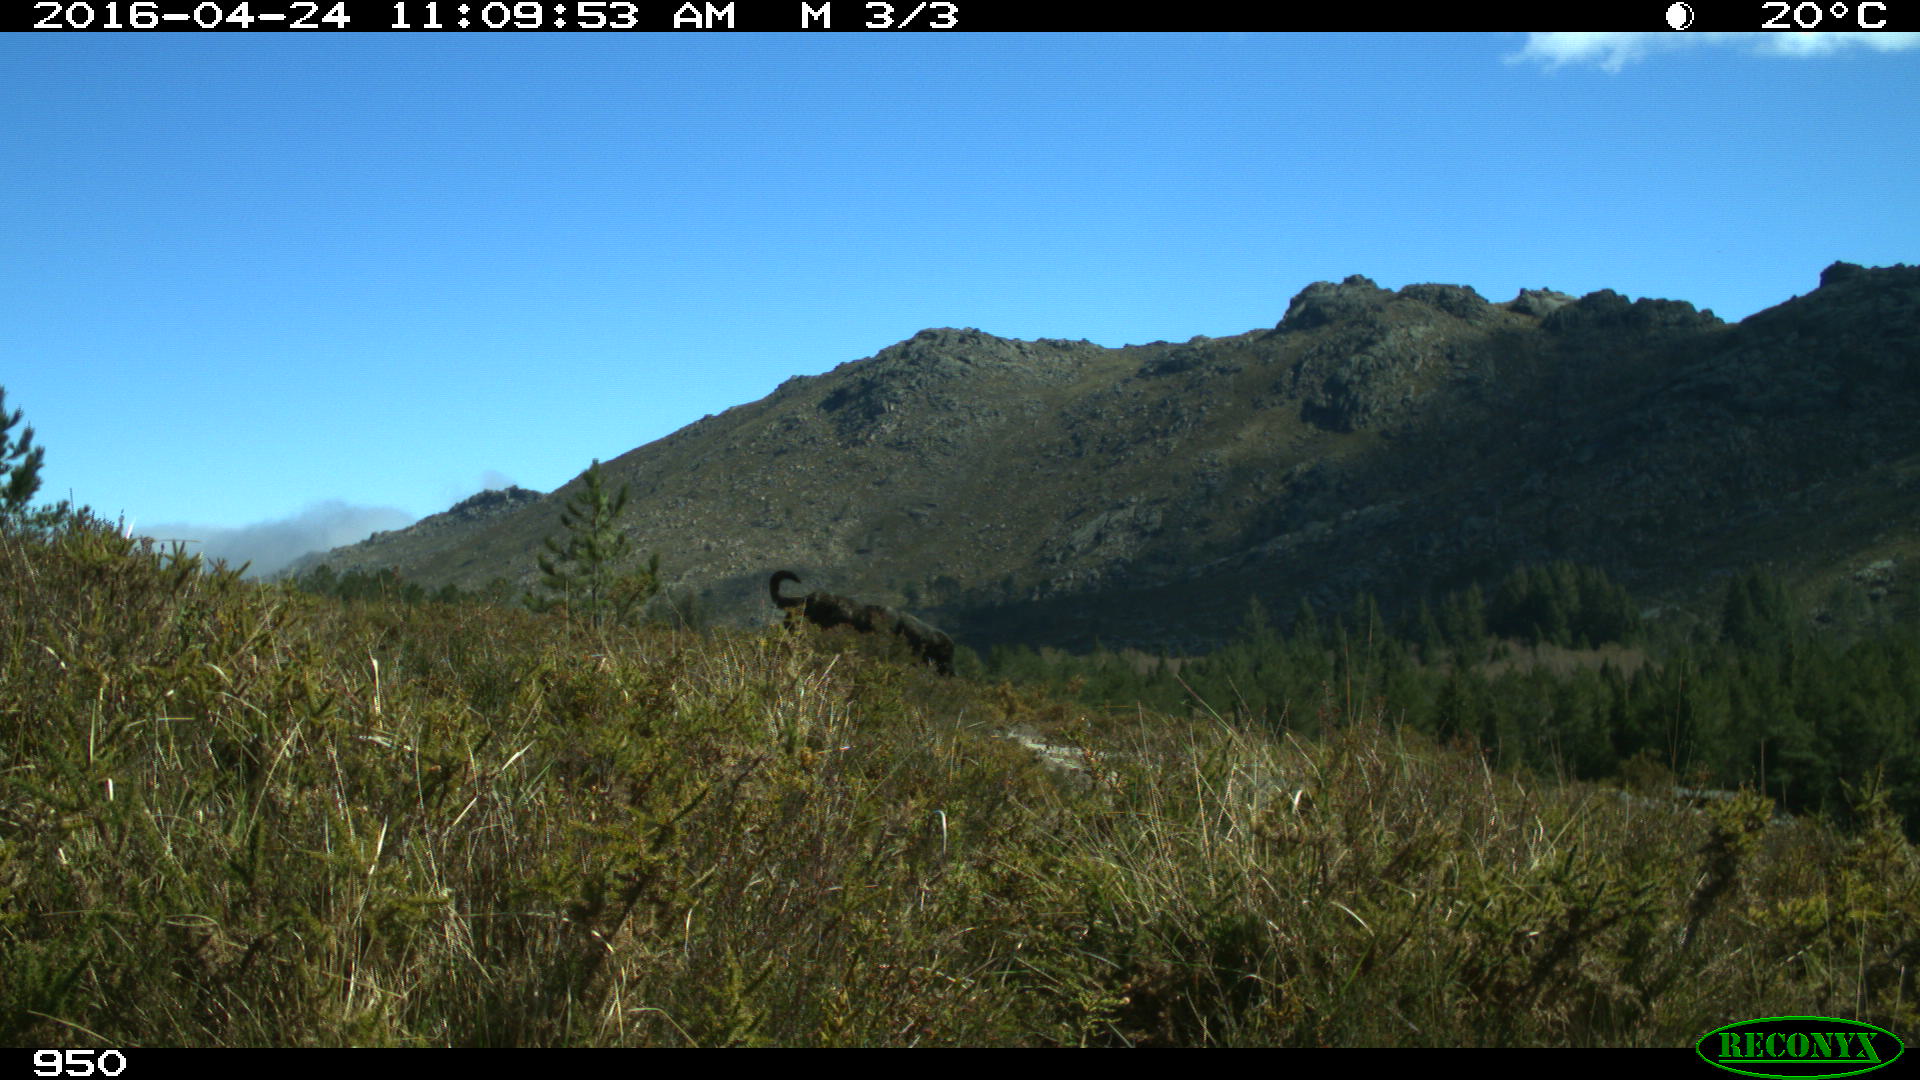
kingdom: Animalia
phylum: Chordata
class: Mammalia
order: Carnivora
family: Canidae
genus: Canis
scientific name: Canis lupus
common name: Gray wolf
